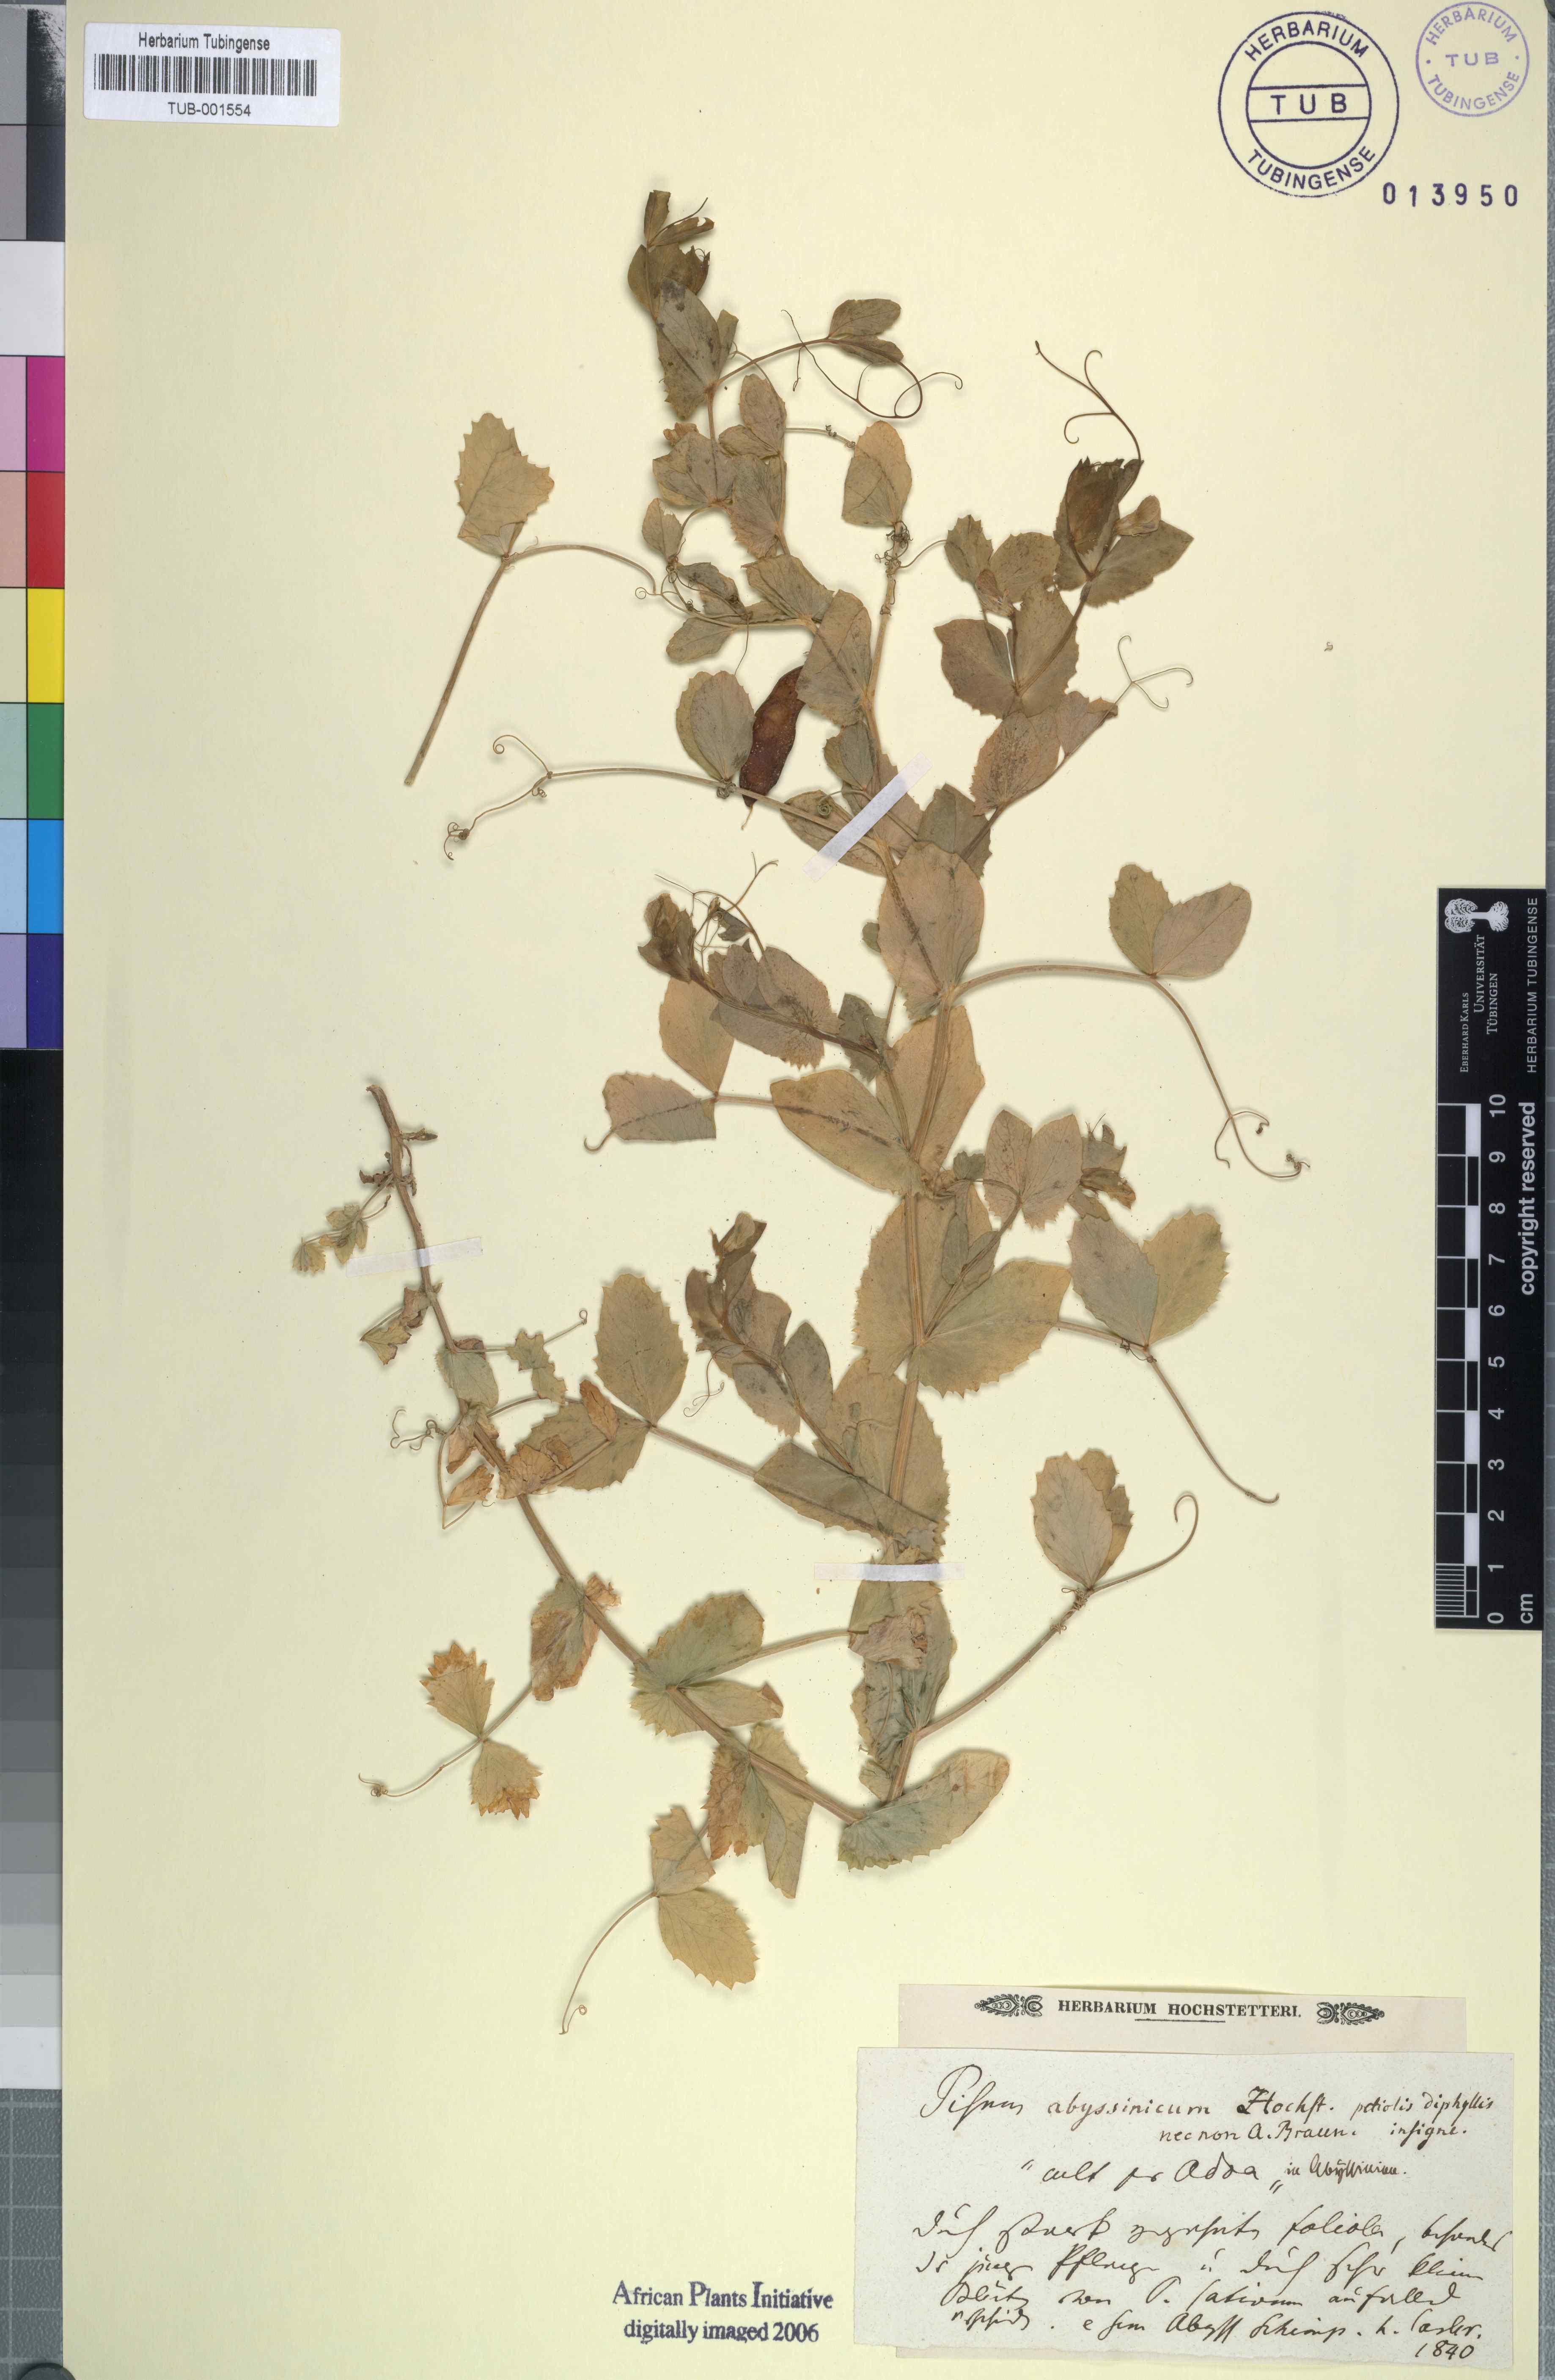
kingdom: Plantae
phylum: Tracheophyta
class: Magnoliopsida
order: Fabales
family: Fabaceae
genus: Lathyrus
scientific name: Lathyrus oleraceus
